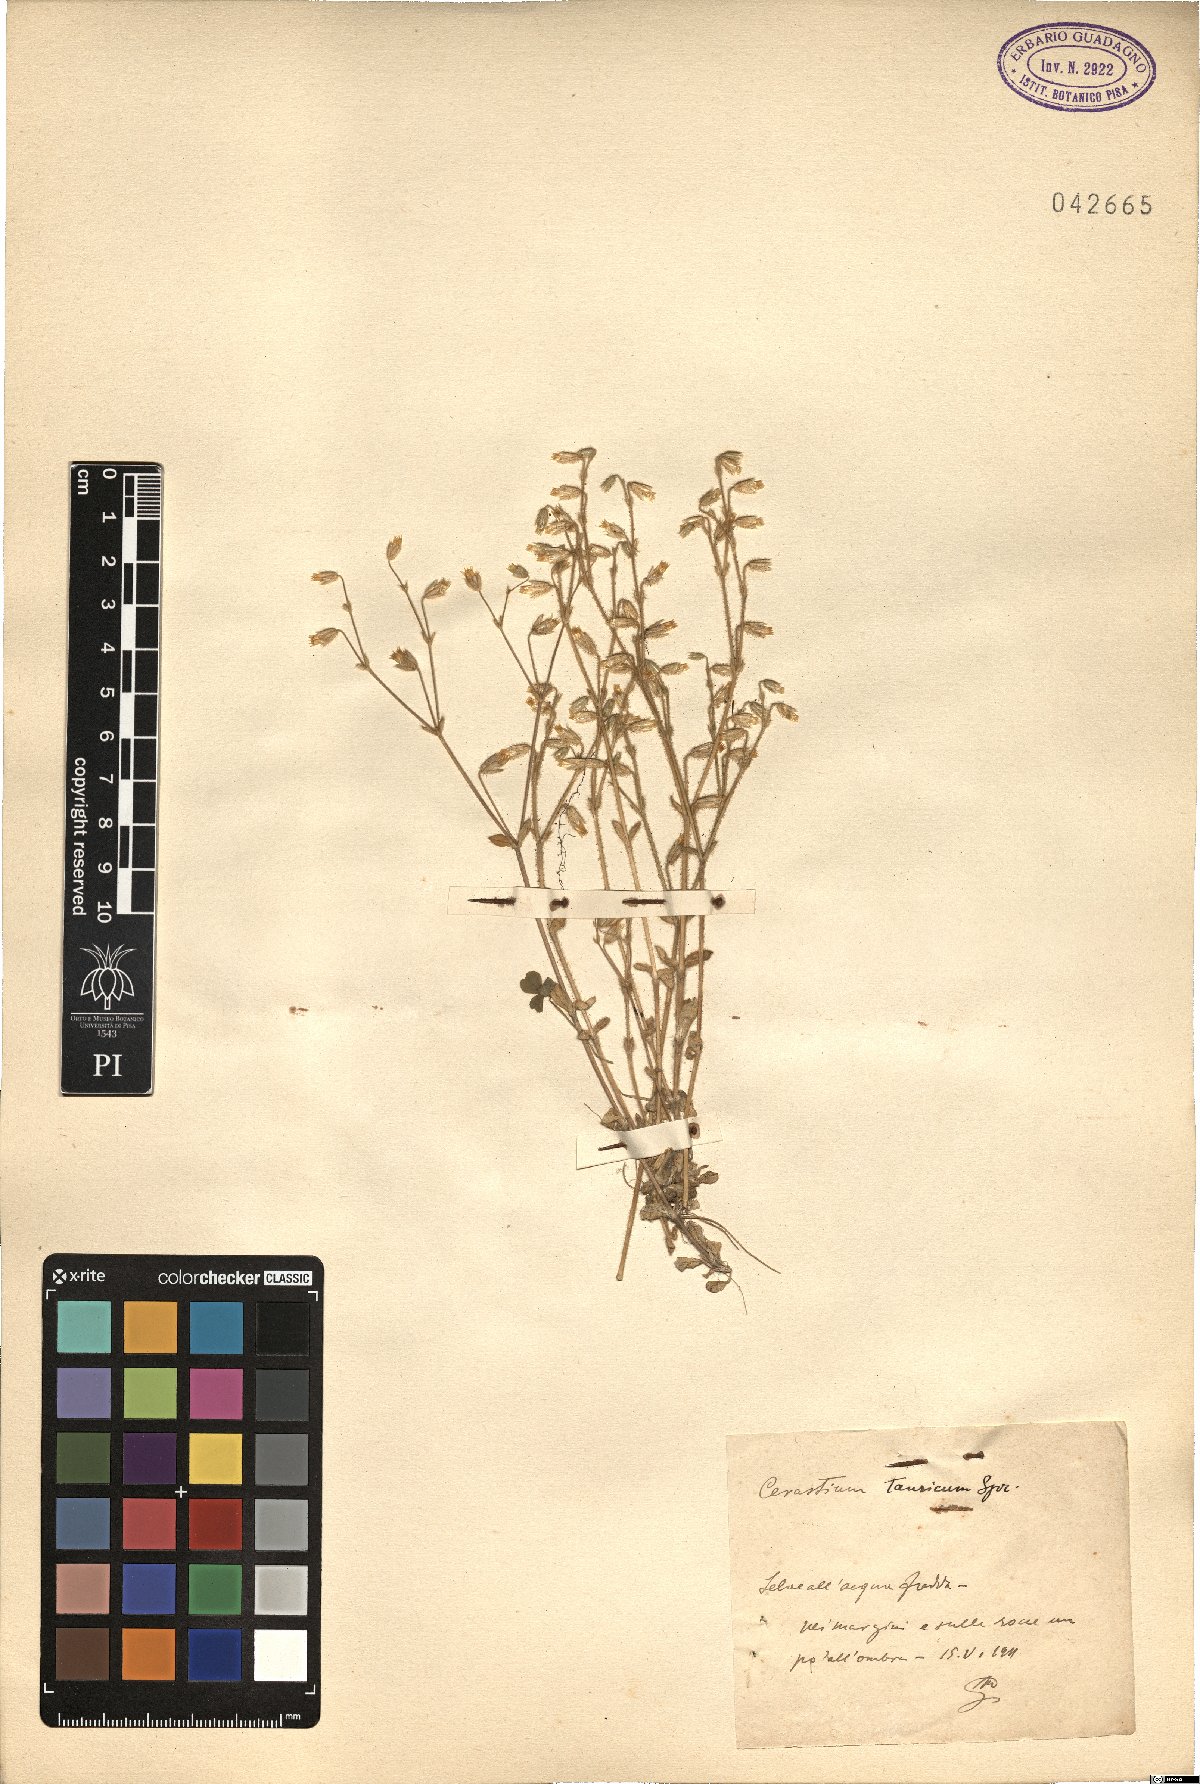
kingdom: Plantae
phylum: Tracheophyta
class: Magnoliopsida
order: Caryophyllales
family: Caryophyllaceae
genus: Cerastium
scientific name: Cerastium brachypetalum
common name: Grey mouse-ear
